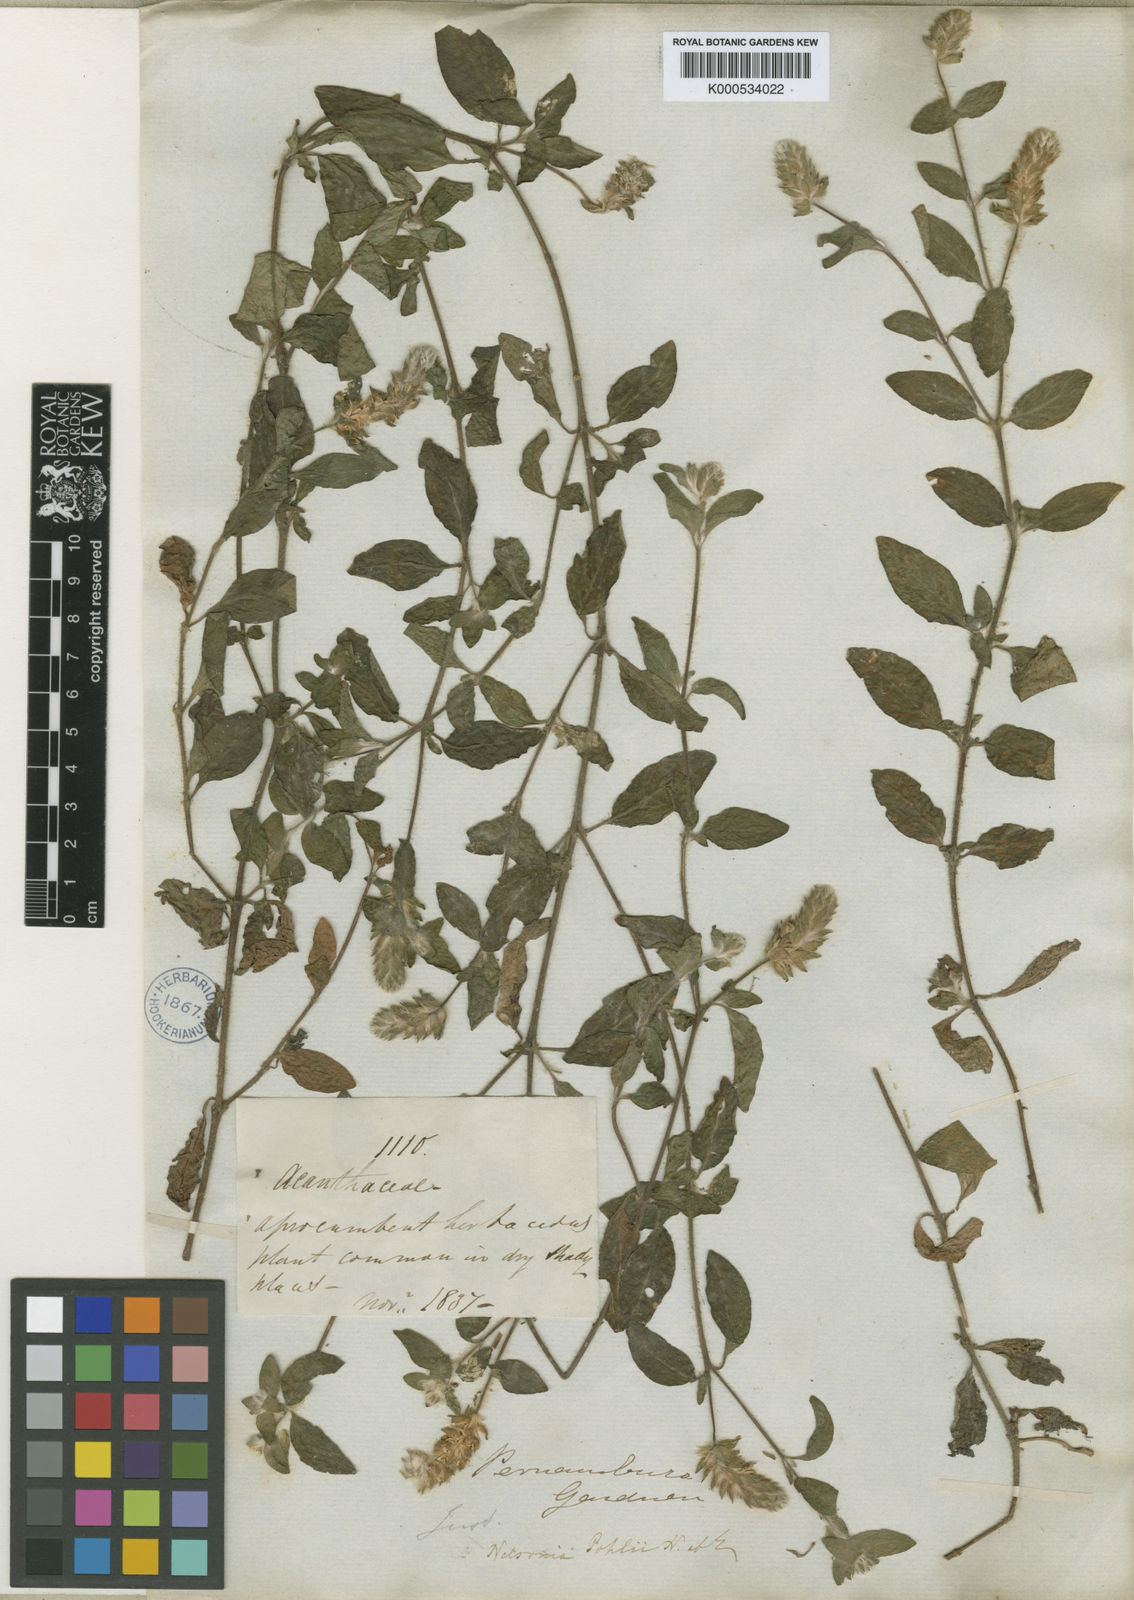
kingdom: Plantae
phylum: Tracheophyta
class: Magnoliopsida
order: Lamiales
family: Acanthaceae
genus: Nelsonia
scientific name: Nelsonia canescens
